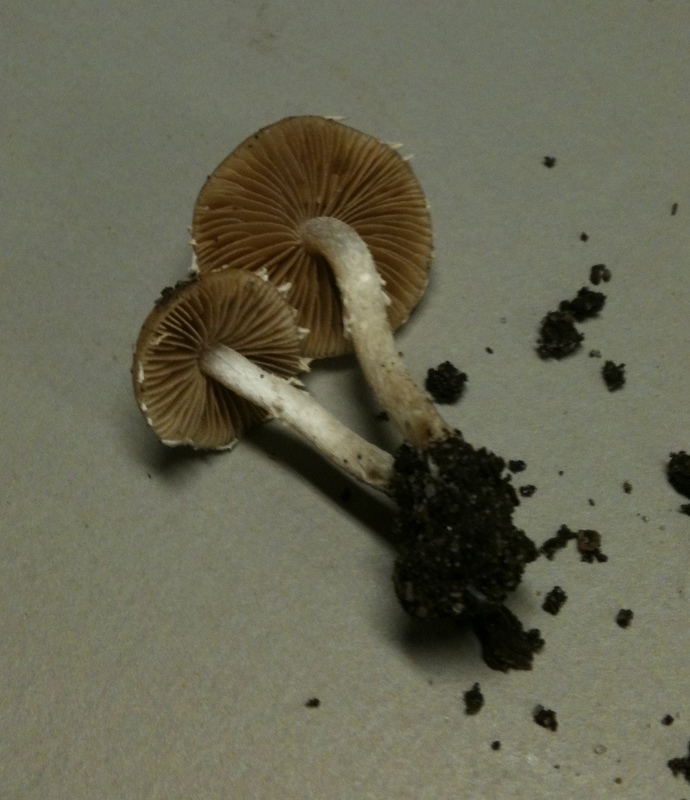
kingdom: Fungi
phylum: Basidiomycota
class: Agaricomycetes
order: Agaricales
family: Bolbitiaceae
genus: Conocybe
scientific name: Conocybe velata
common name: tandet dansehat
